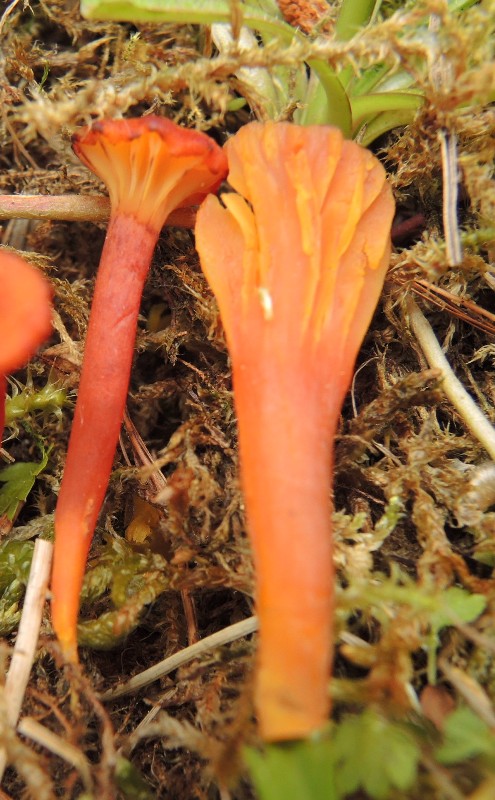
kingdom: Fungi
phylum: Basidiomycota
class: Agaricomycetes
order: Agaricales
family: Hygrophoraceae
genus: Hygrocybe
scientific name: Hygrocybe cantharellus
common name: kantarel-vokshat
